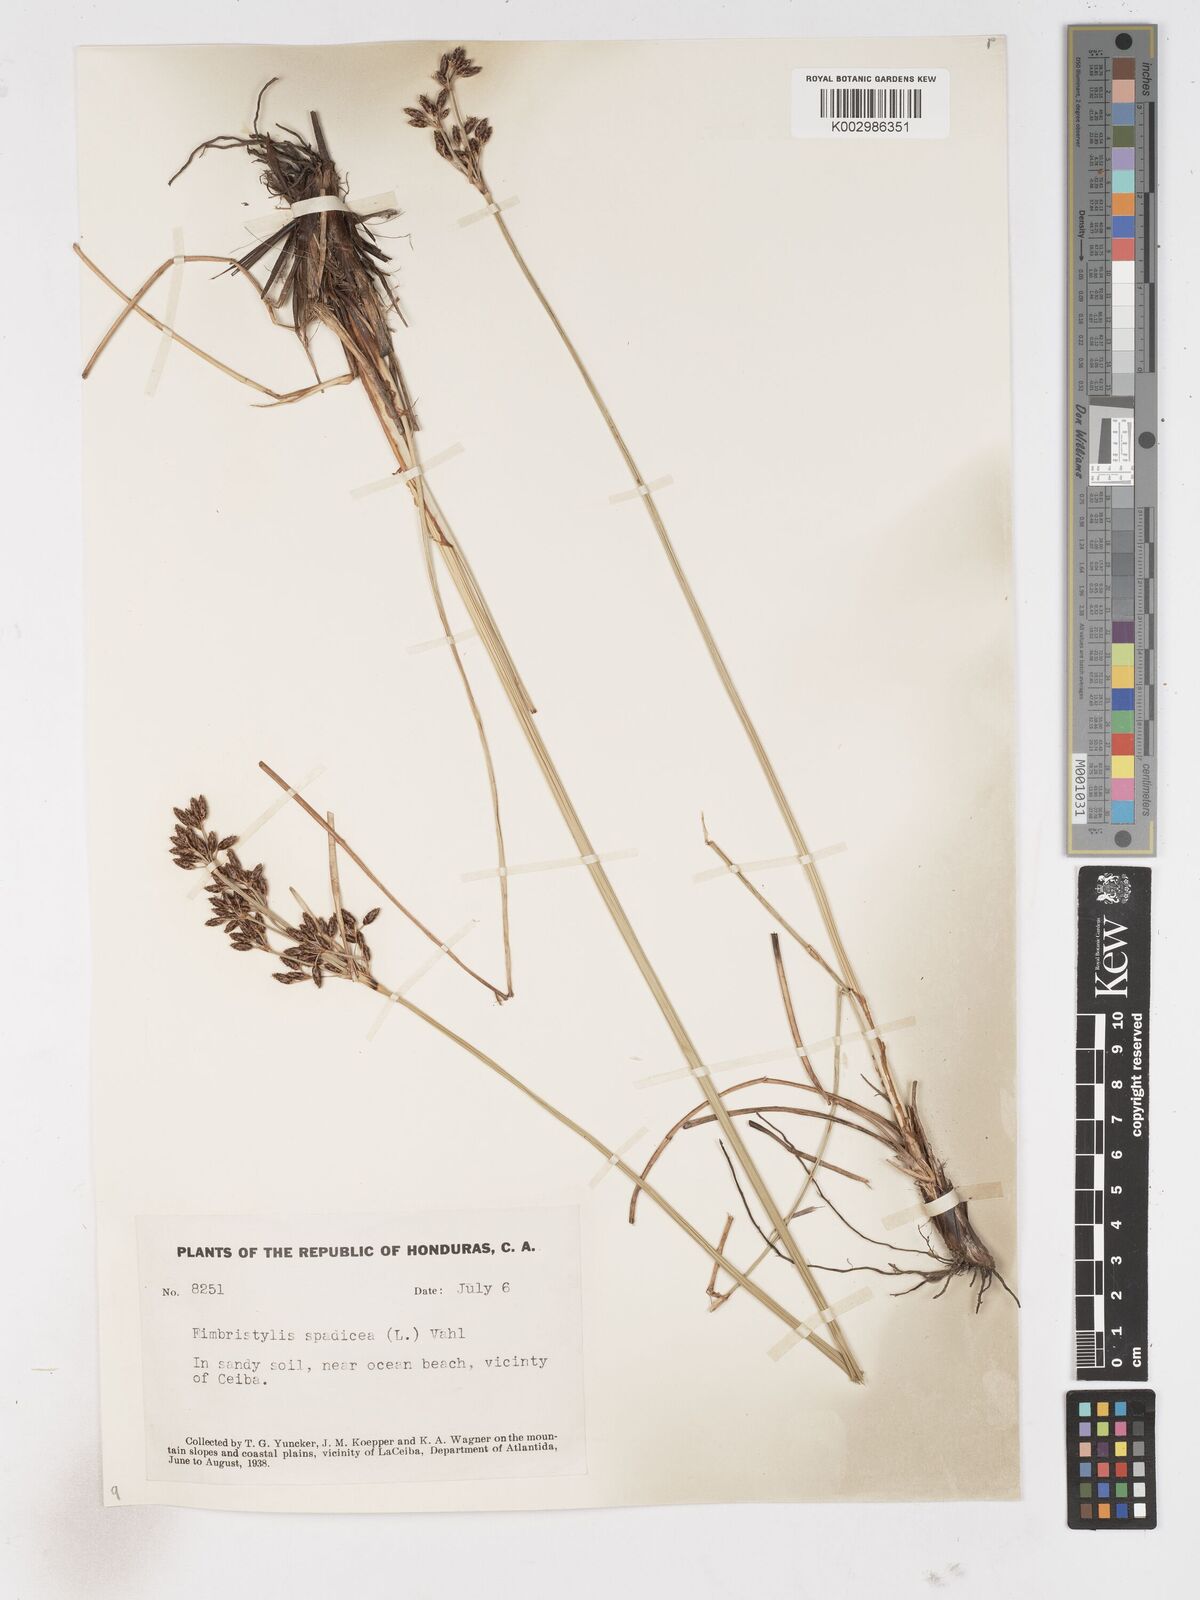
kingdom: Plantae
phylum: Tracheophyta
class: Liliopsida
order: Poales
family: Cyperaceae
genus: Fimbristylis
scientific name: Fimbristylis
